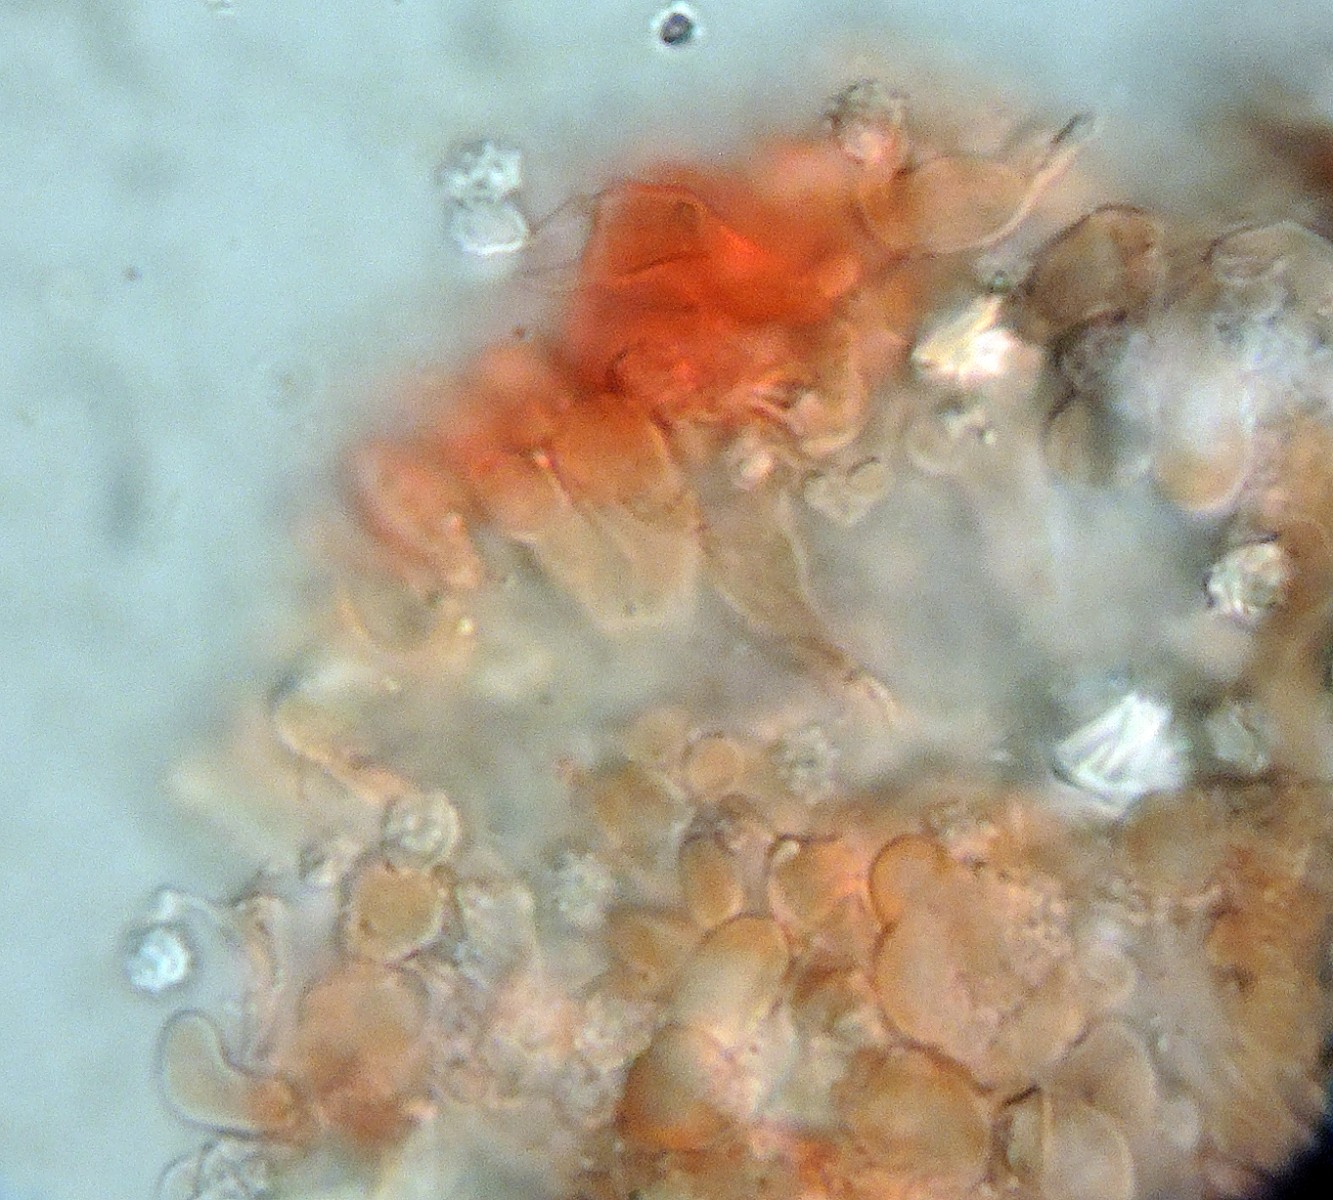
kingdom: Fungi
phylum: Basidiomycota
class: Agaricomycetes
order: Trechisporales
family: Sistotremataceae
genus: Trechispora
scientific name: Trechispora
